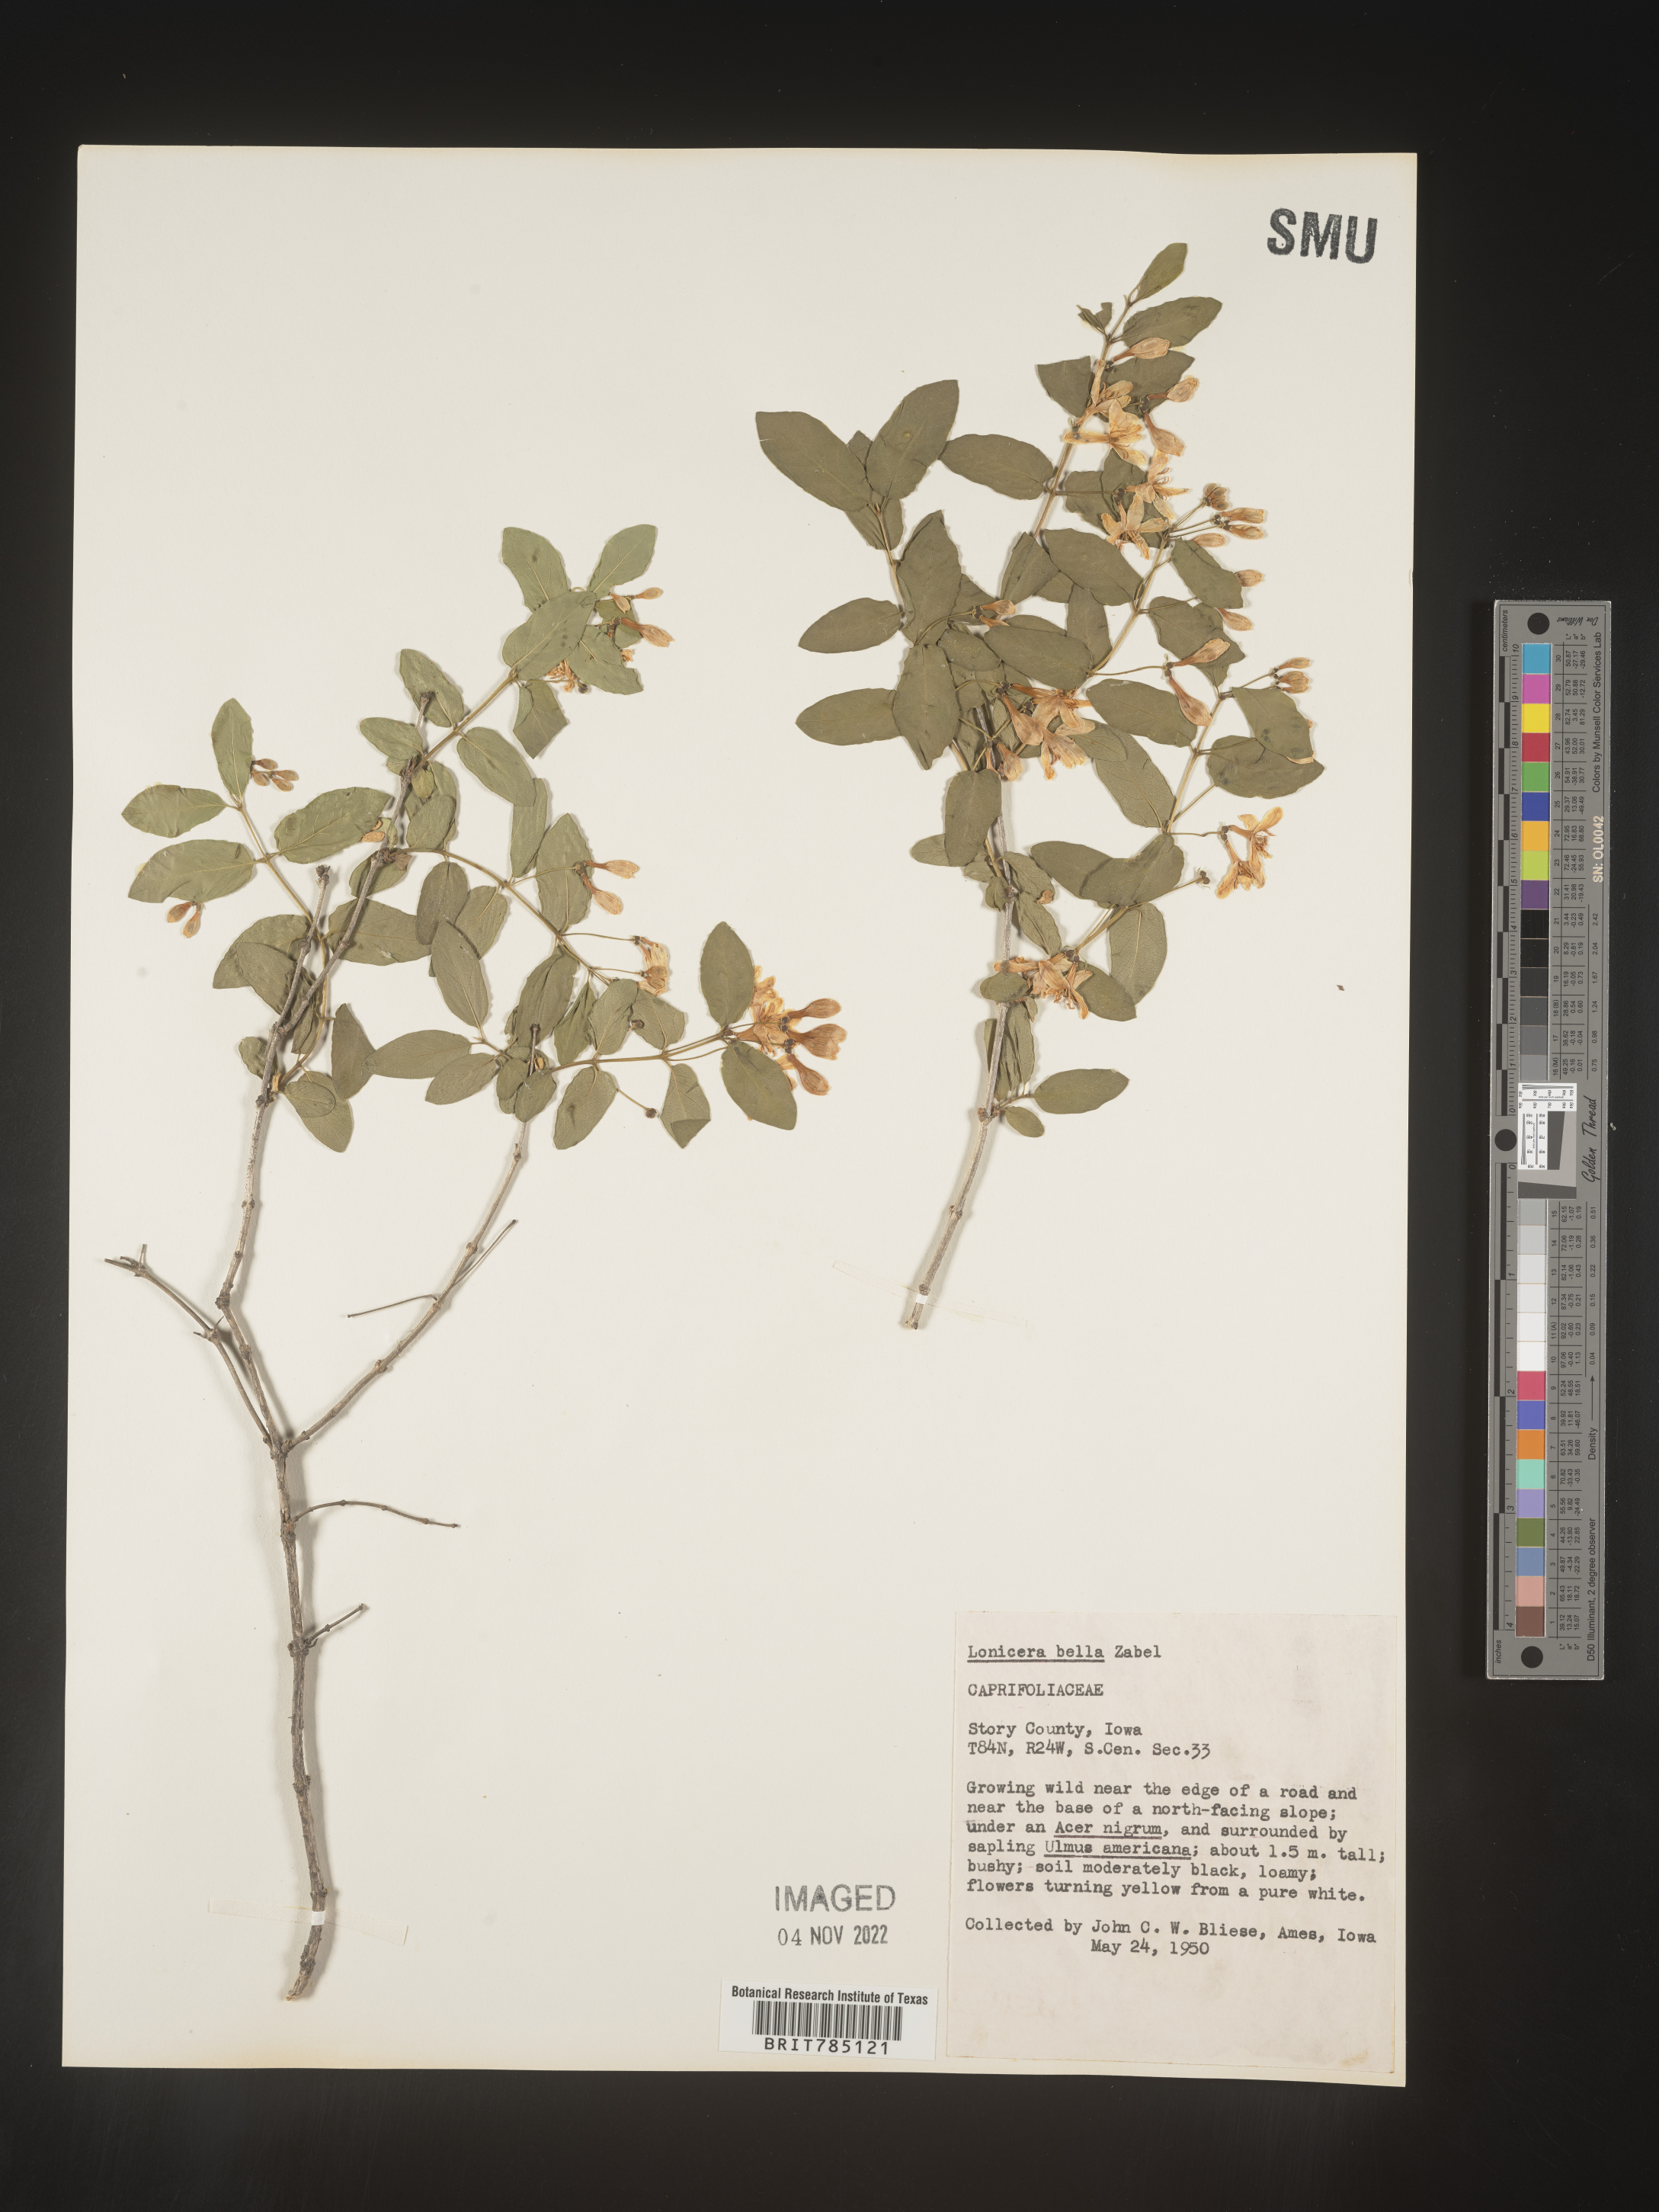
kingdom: Plantae
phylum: Tracheophyta
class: Magnoliopsida
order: Dipsacales
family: Caprifoliaceae
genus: Lonicera
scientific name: Lonicera bella
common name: Bell's honeysuckle
